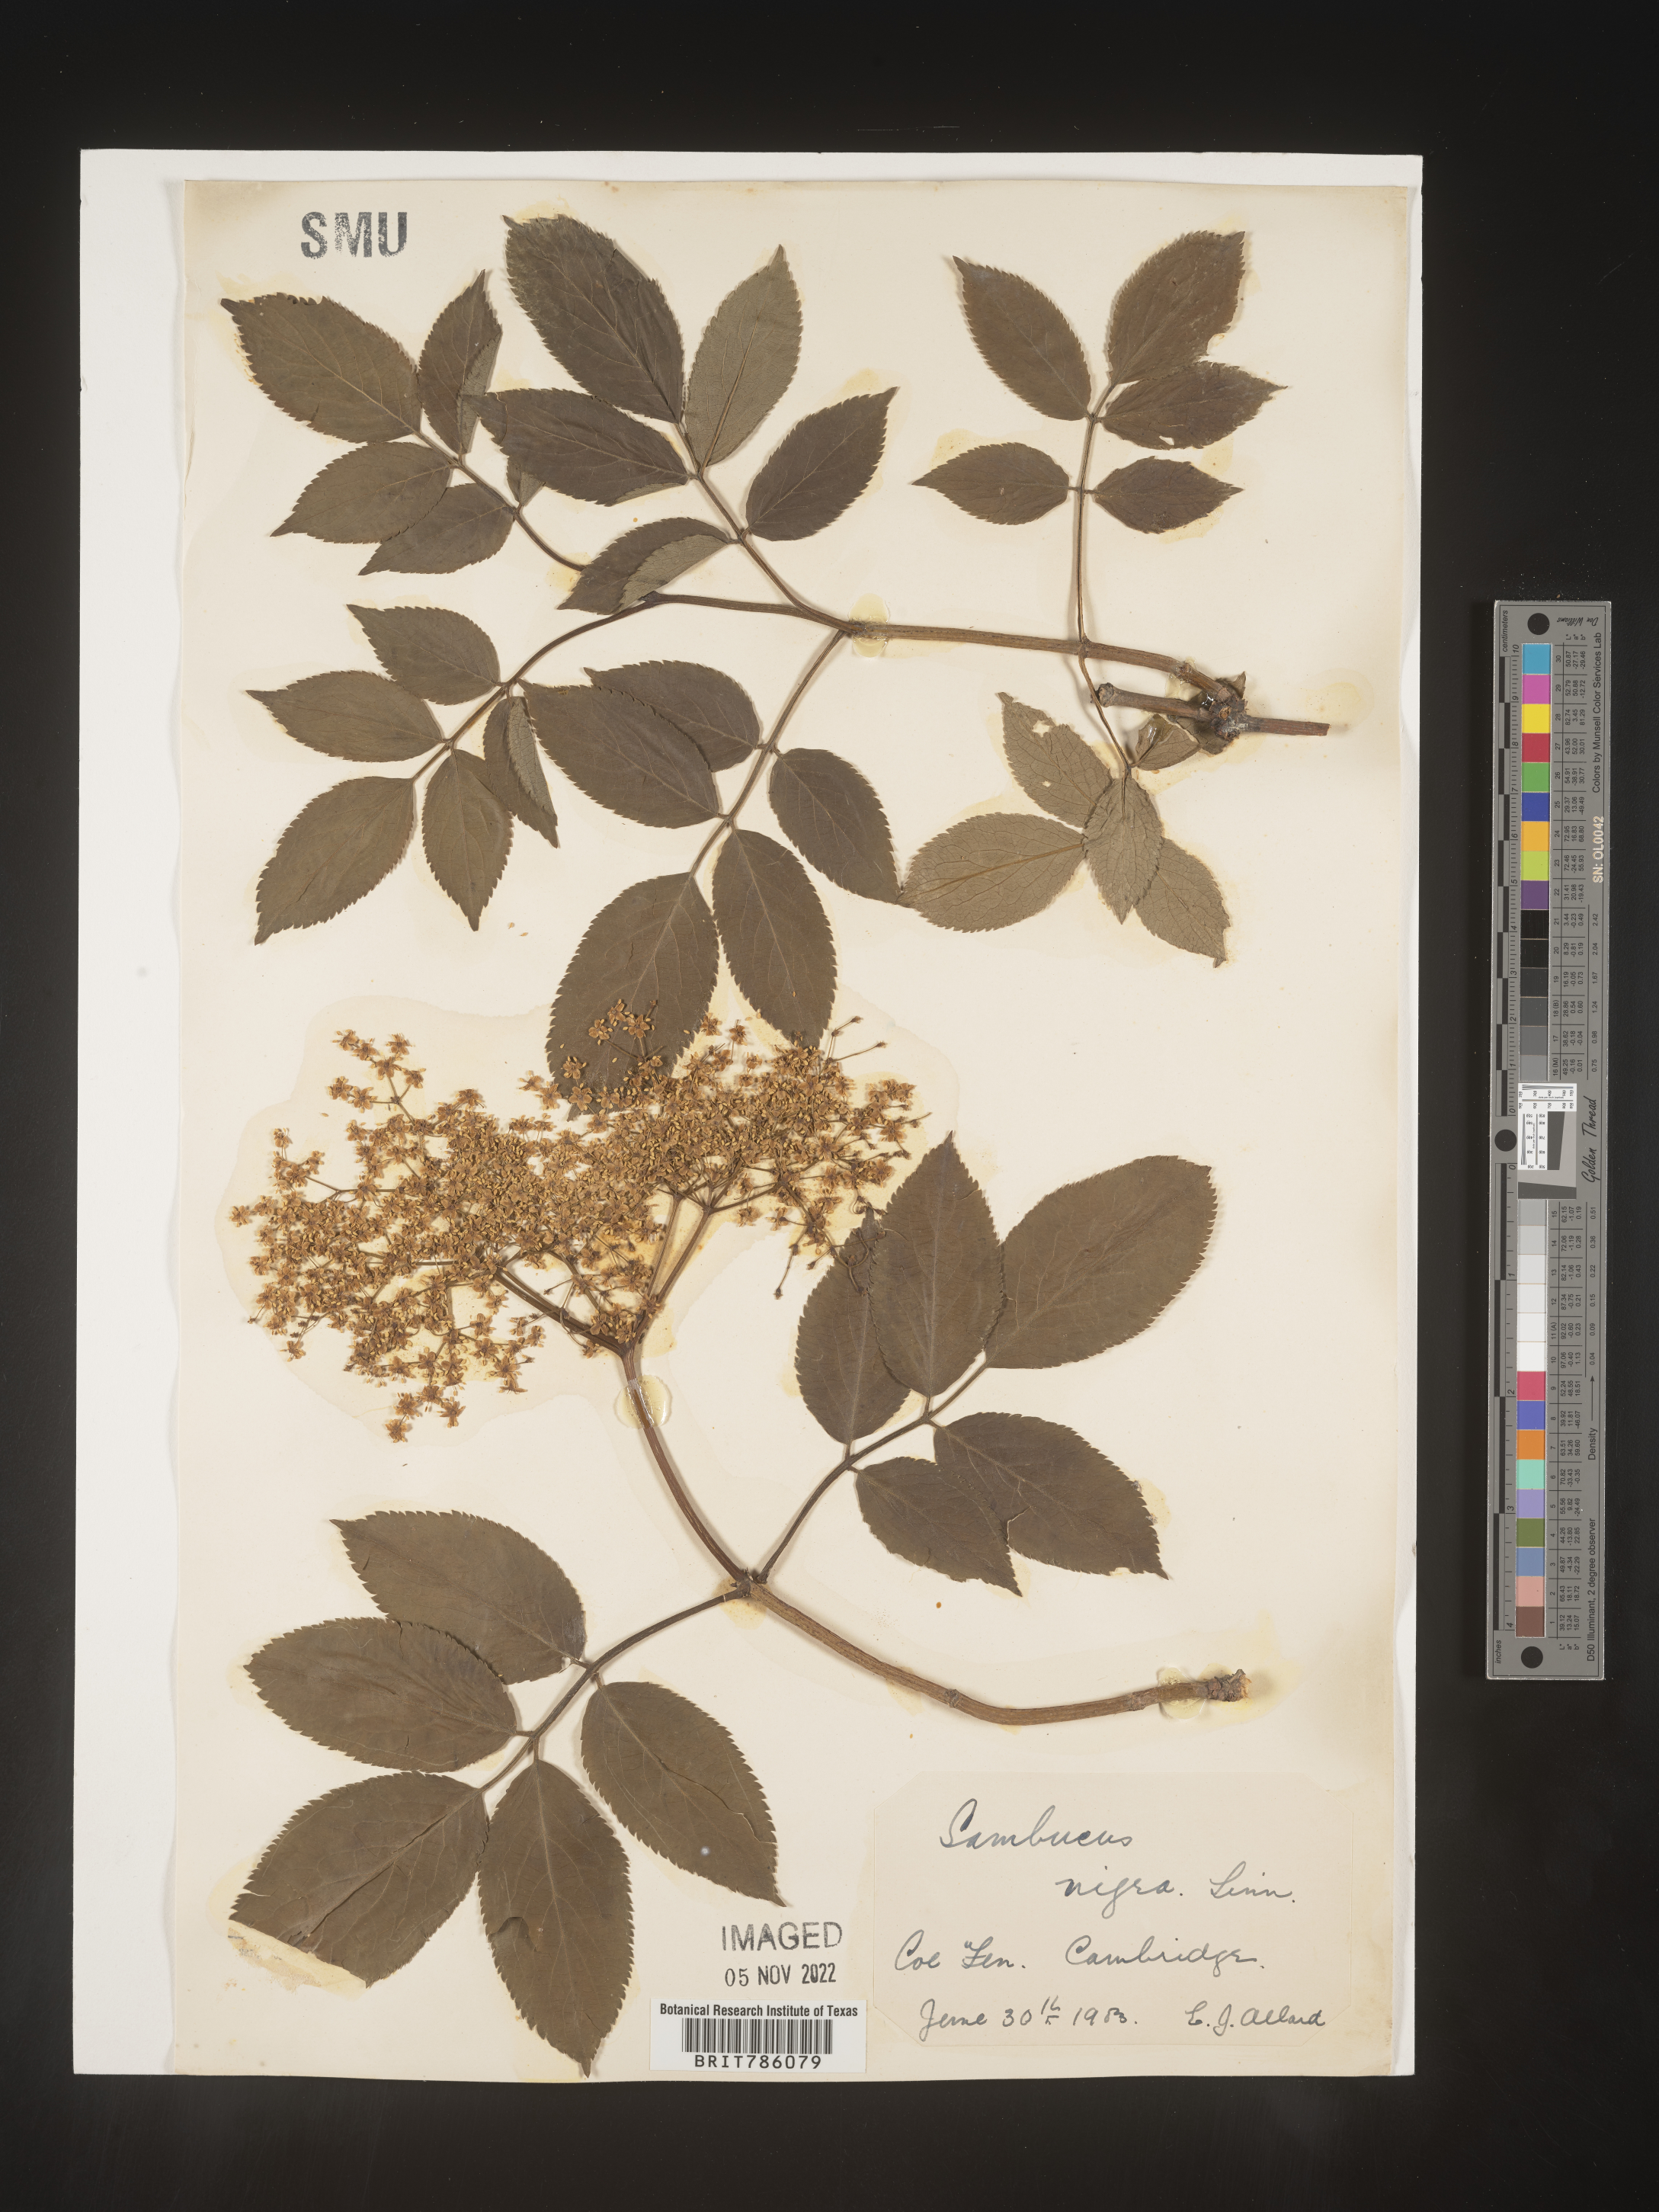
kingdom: Plantae
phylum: Tracheophyta
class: Magnoliopsida
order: Dipsacales
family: Viburnaceae
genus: Sambucus
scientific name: Sambucus
